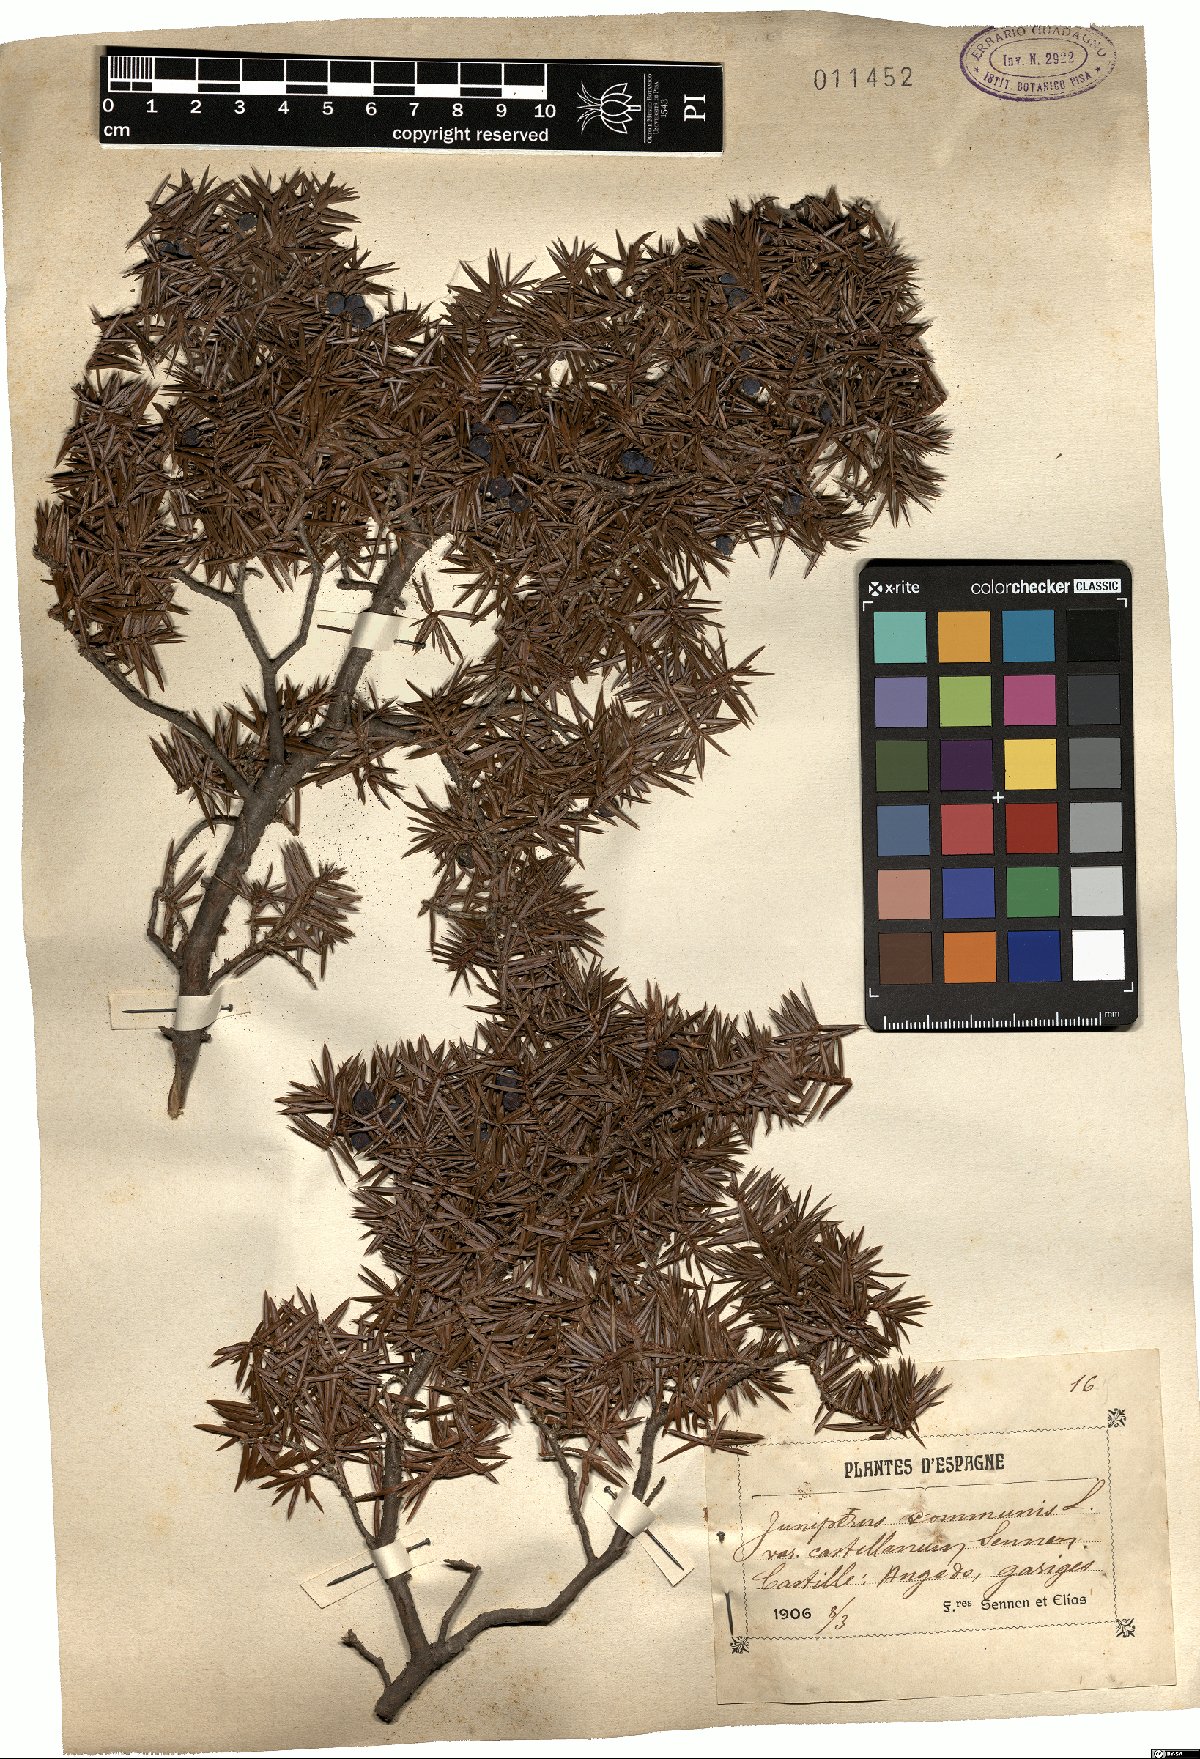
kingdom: Plantae
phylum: Tracheophyta
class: Pinopsida
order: Pinales
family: Cupressaceae
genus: Juniperus
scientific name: Juniperus communis
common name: Common juniper
